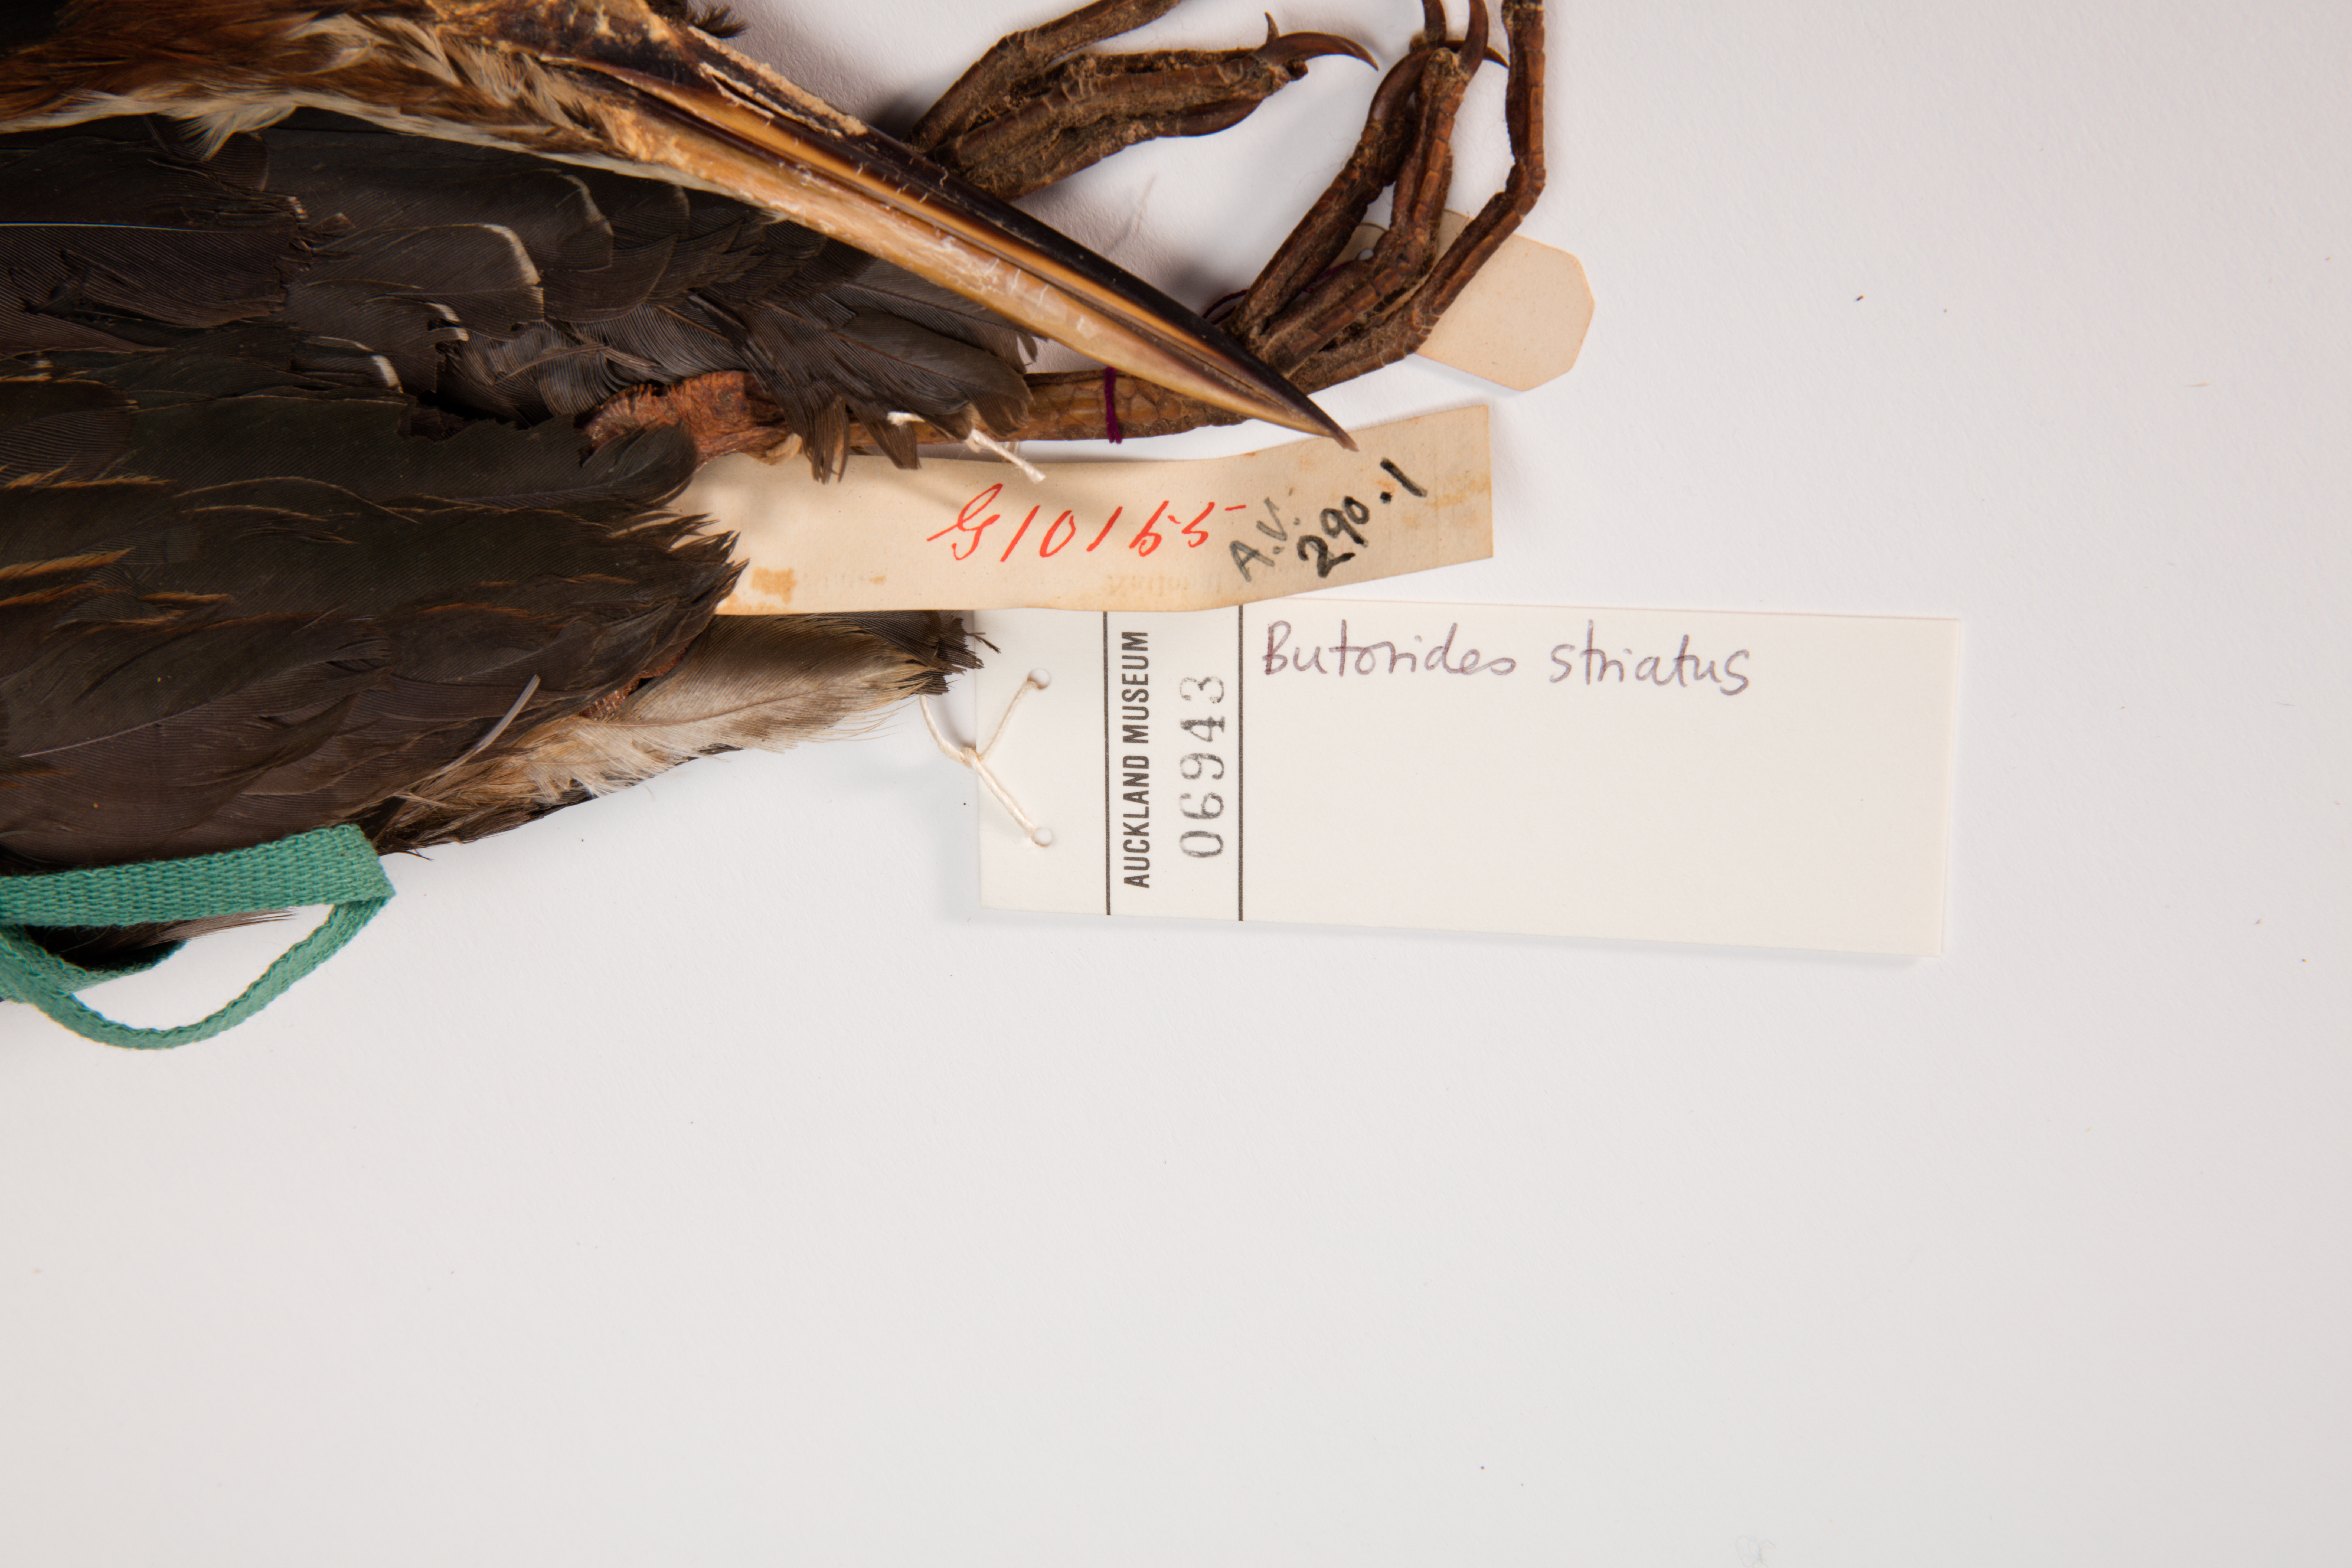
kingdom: Animalia
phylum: Chordata
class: Aves
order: Pelecaniformes
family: Ardeidae
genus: Butorides
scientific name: Butorides striata
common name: Striated heron
